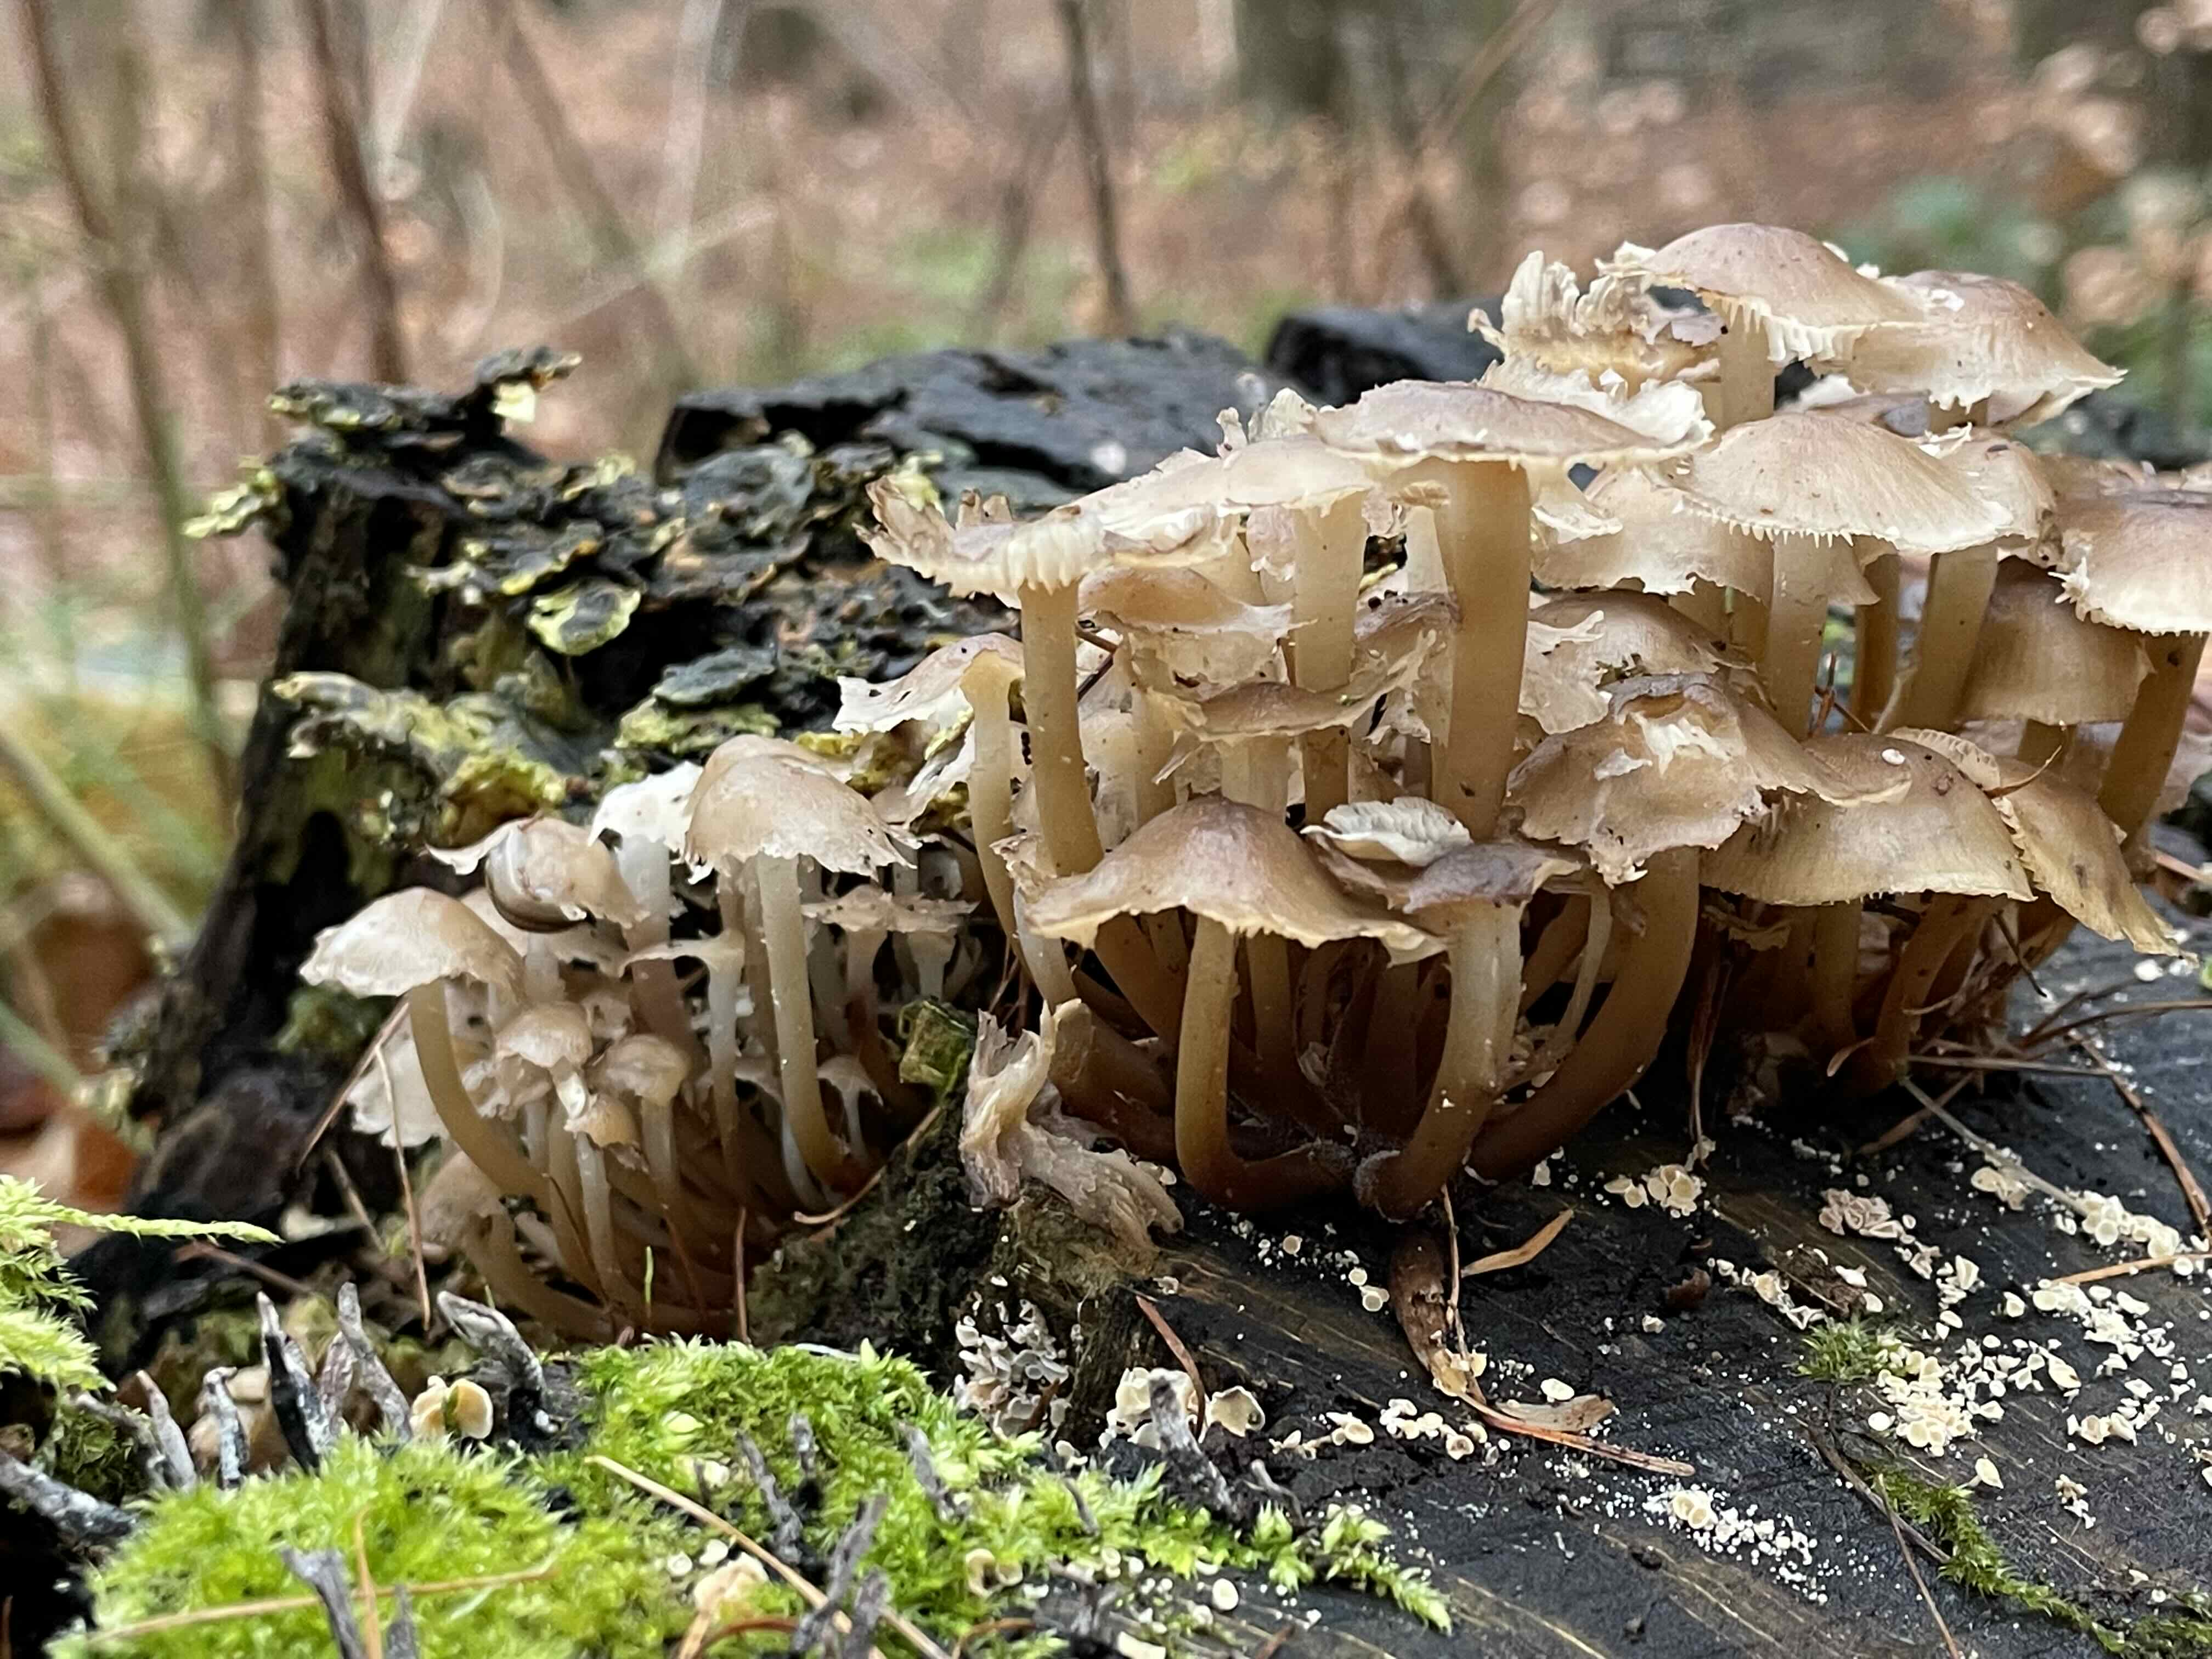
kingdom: Fungi
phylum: Basidiomycota
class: Agaricomycetes
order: Agaricales
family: Mycenaceae
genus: Mycena
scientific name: Mycena tintinnabulum
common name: vinter-huesvamp
